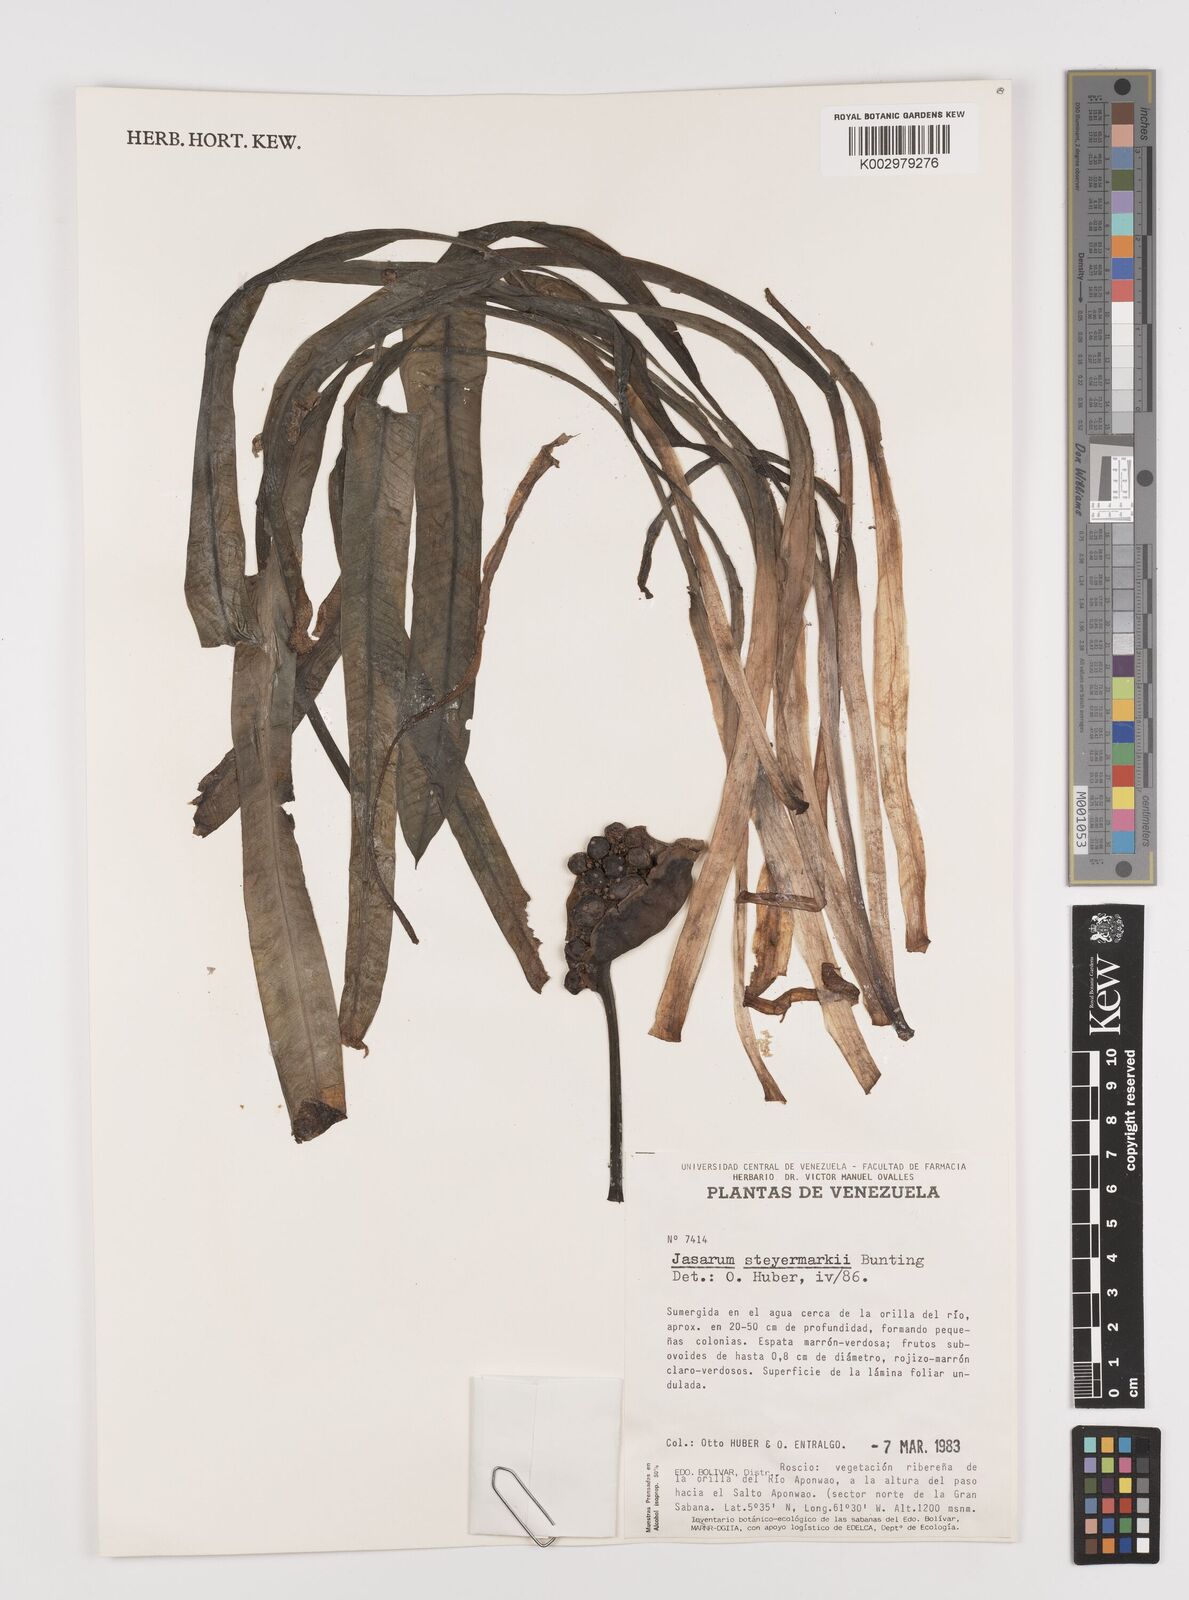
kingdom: Plantae
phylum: Tracheophyta
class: Liliopsida
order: Alismatales
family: Araceae
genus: Jasarum
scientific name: Jasarum steyermarkii
